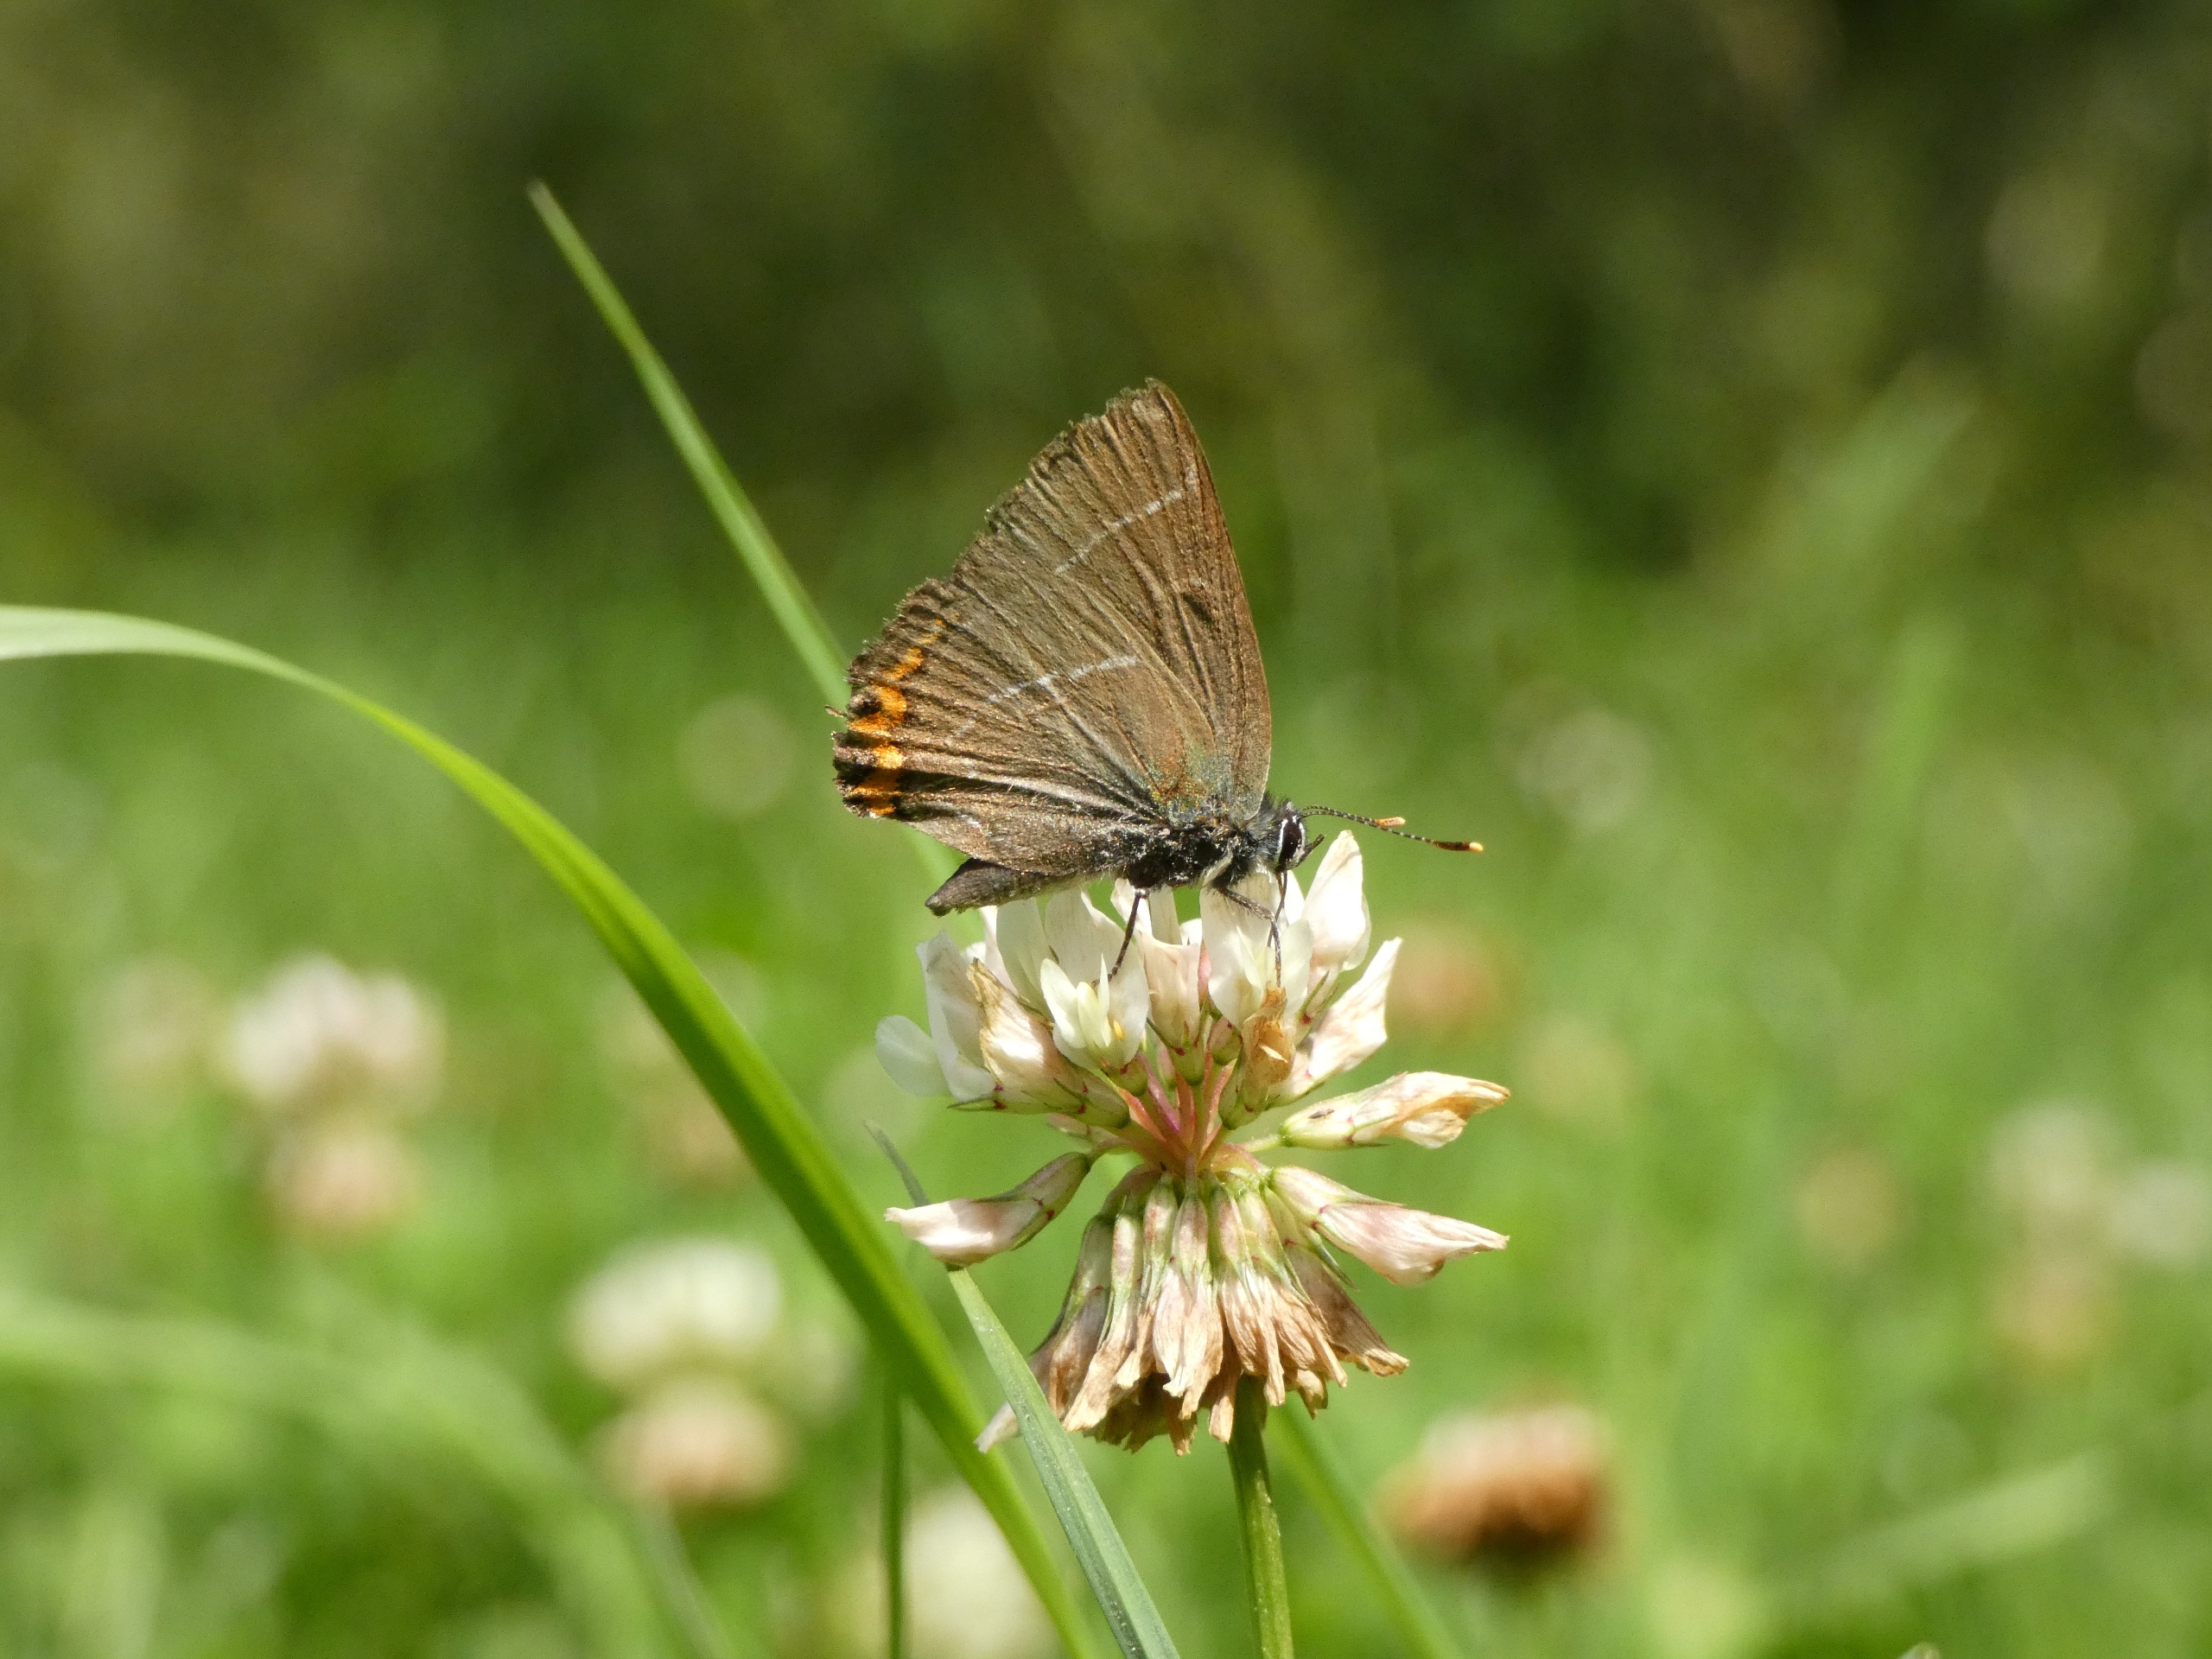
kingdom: Animalia
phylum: Arthropoda
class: Insecta
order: Lepidoptera
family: Lycaenidae
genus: Satyrium
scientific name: Satyrium w-album
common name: Det hvide W
